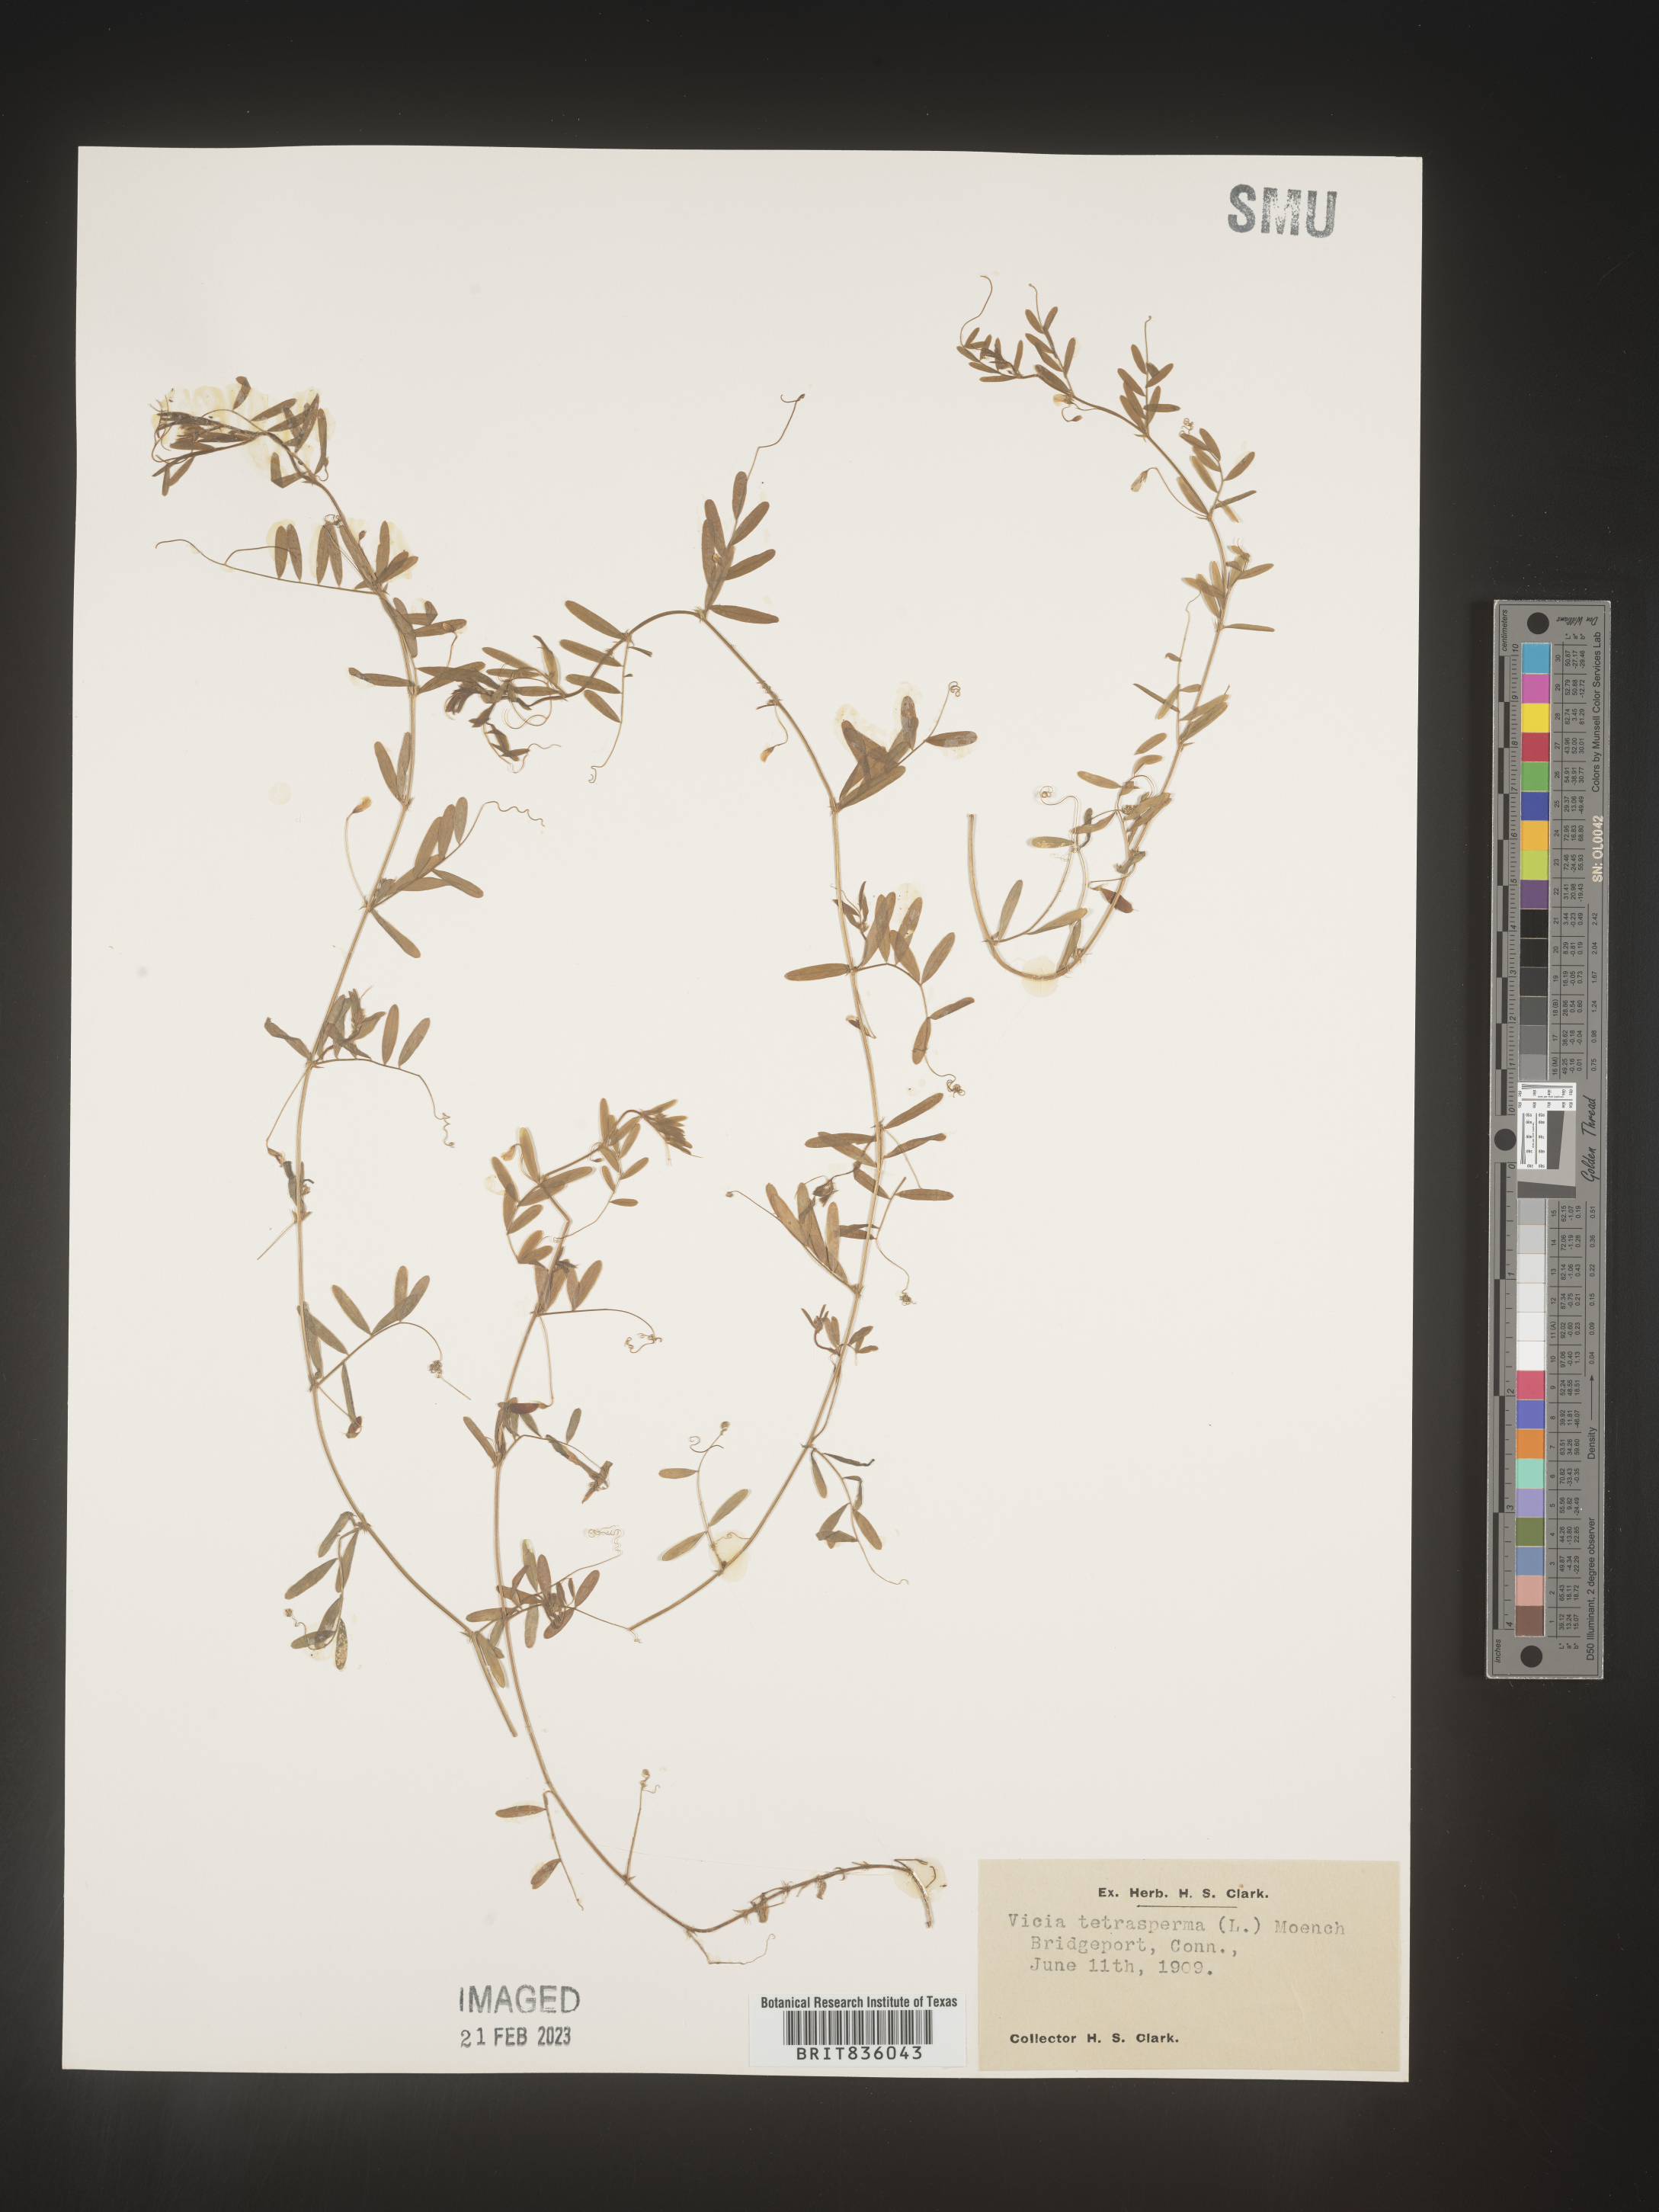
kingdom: Plantae
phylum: Tracheophyta
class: Magnoliopsida
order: Fabales
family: Fabaceae
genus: Vicia
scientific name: Vicia tetrasperma
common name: Smooth tare
